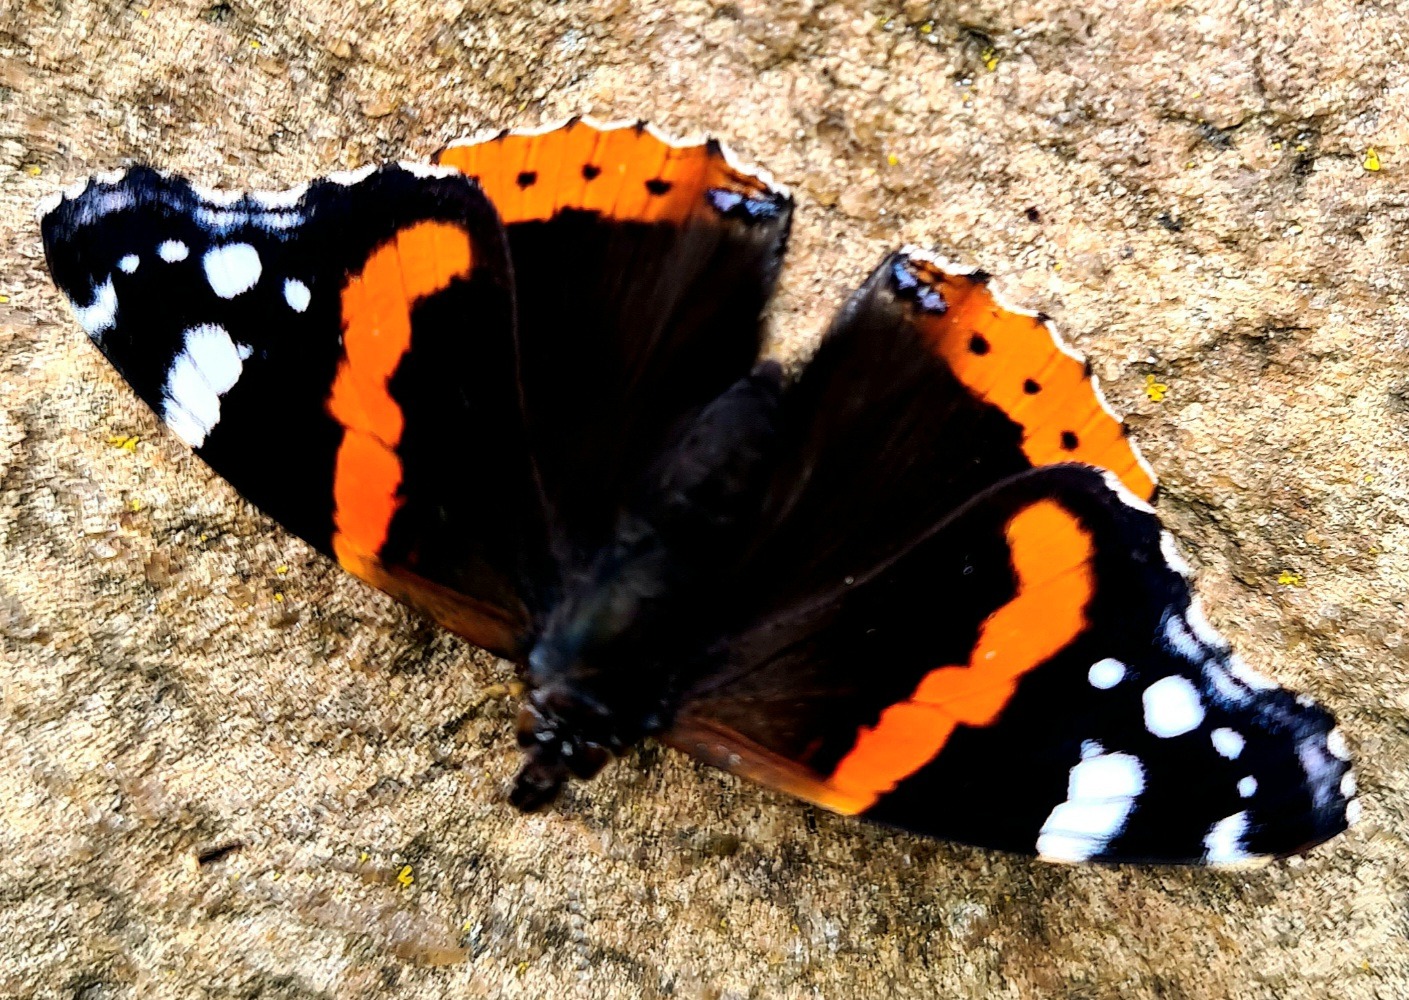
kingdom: Animalia
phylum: Arthropoda
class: Insecta
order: Lepidoptera
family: Nymphalidae
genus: Vanessa
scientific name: Vanessa atalanta
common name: Admiral
